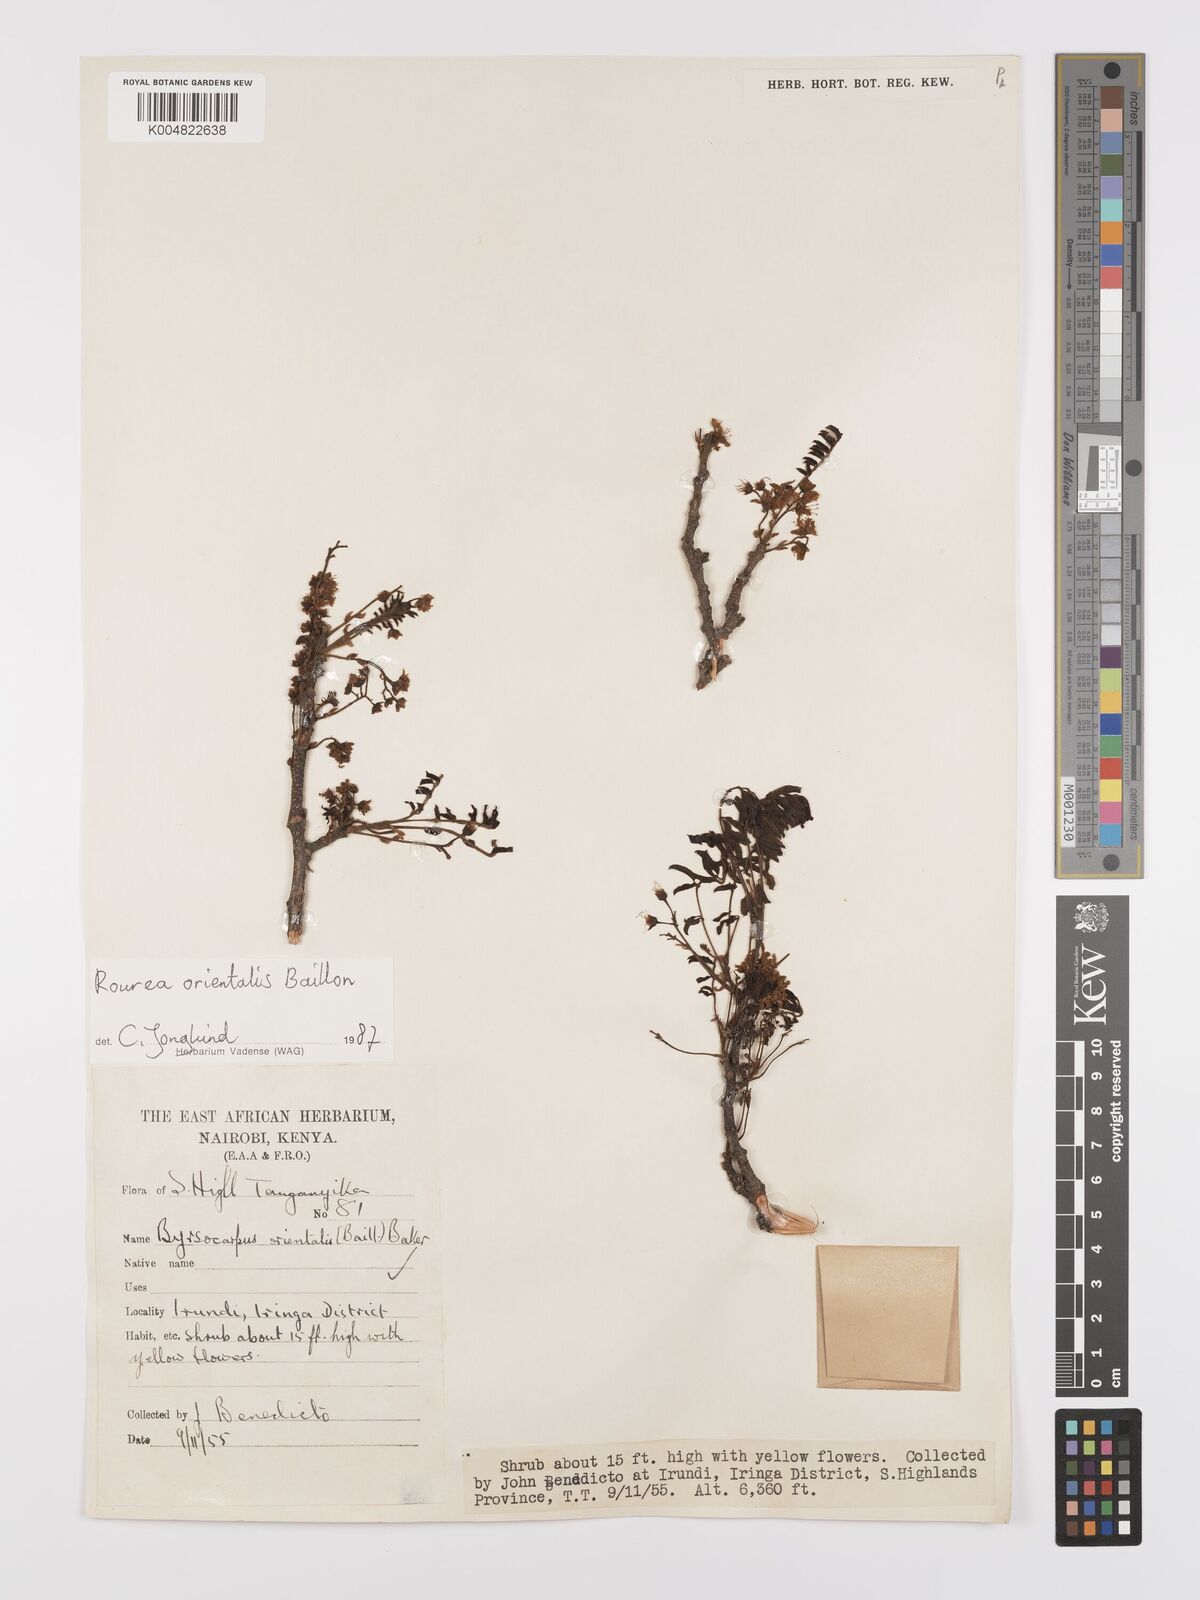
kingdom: Plantae
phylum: Tracheophyta
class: Magnoliopsida
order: Oxalidales
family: Connaraceae
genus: Rourea
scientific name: Rourea orientalis
